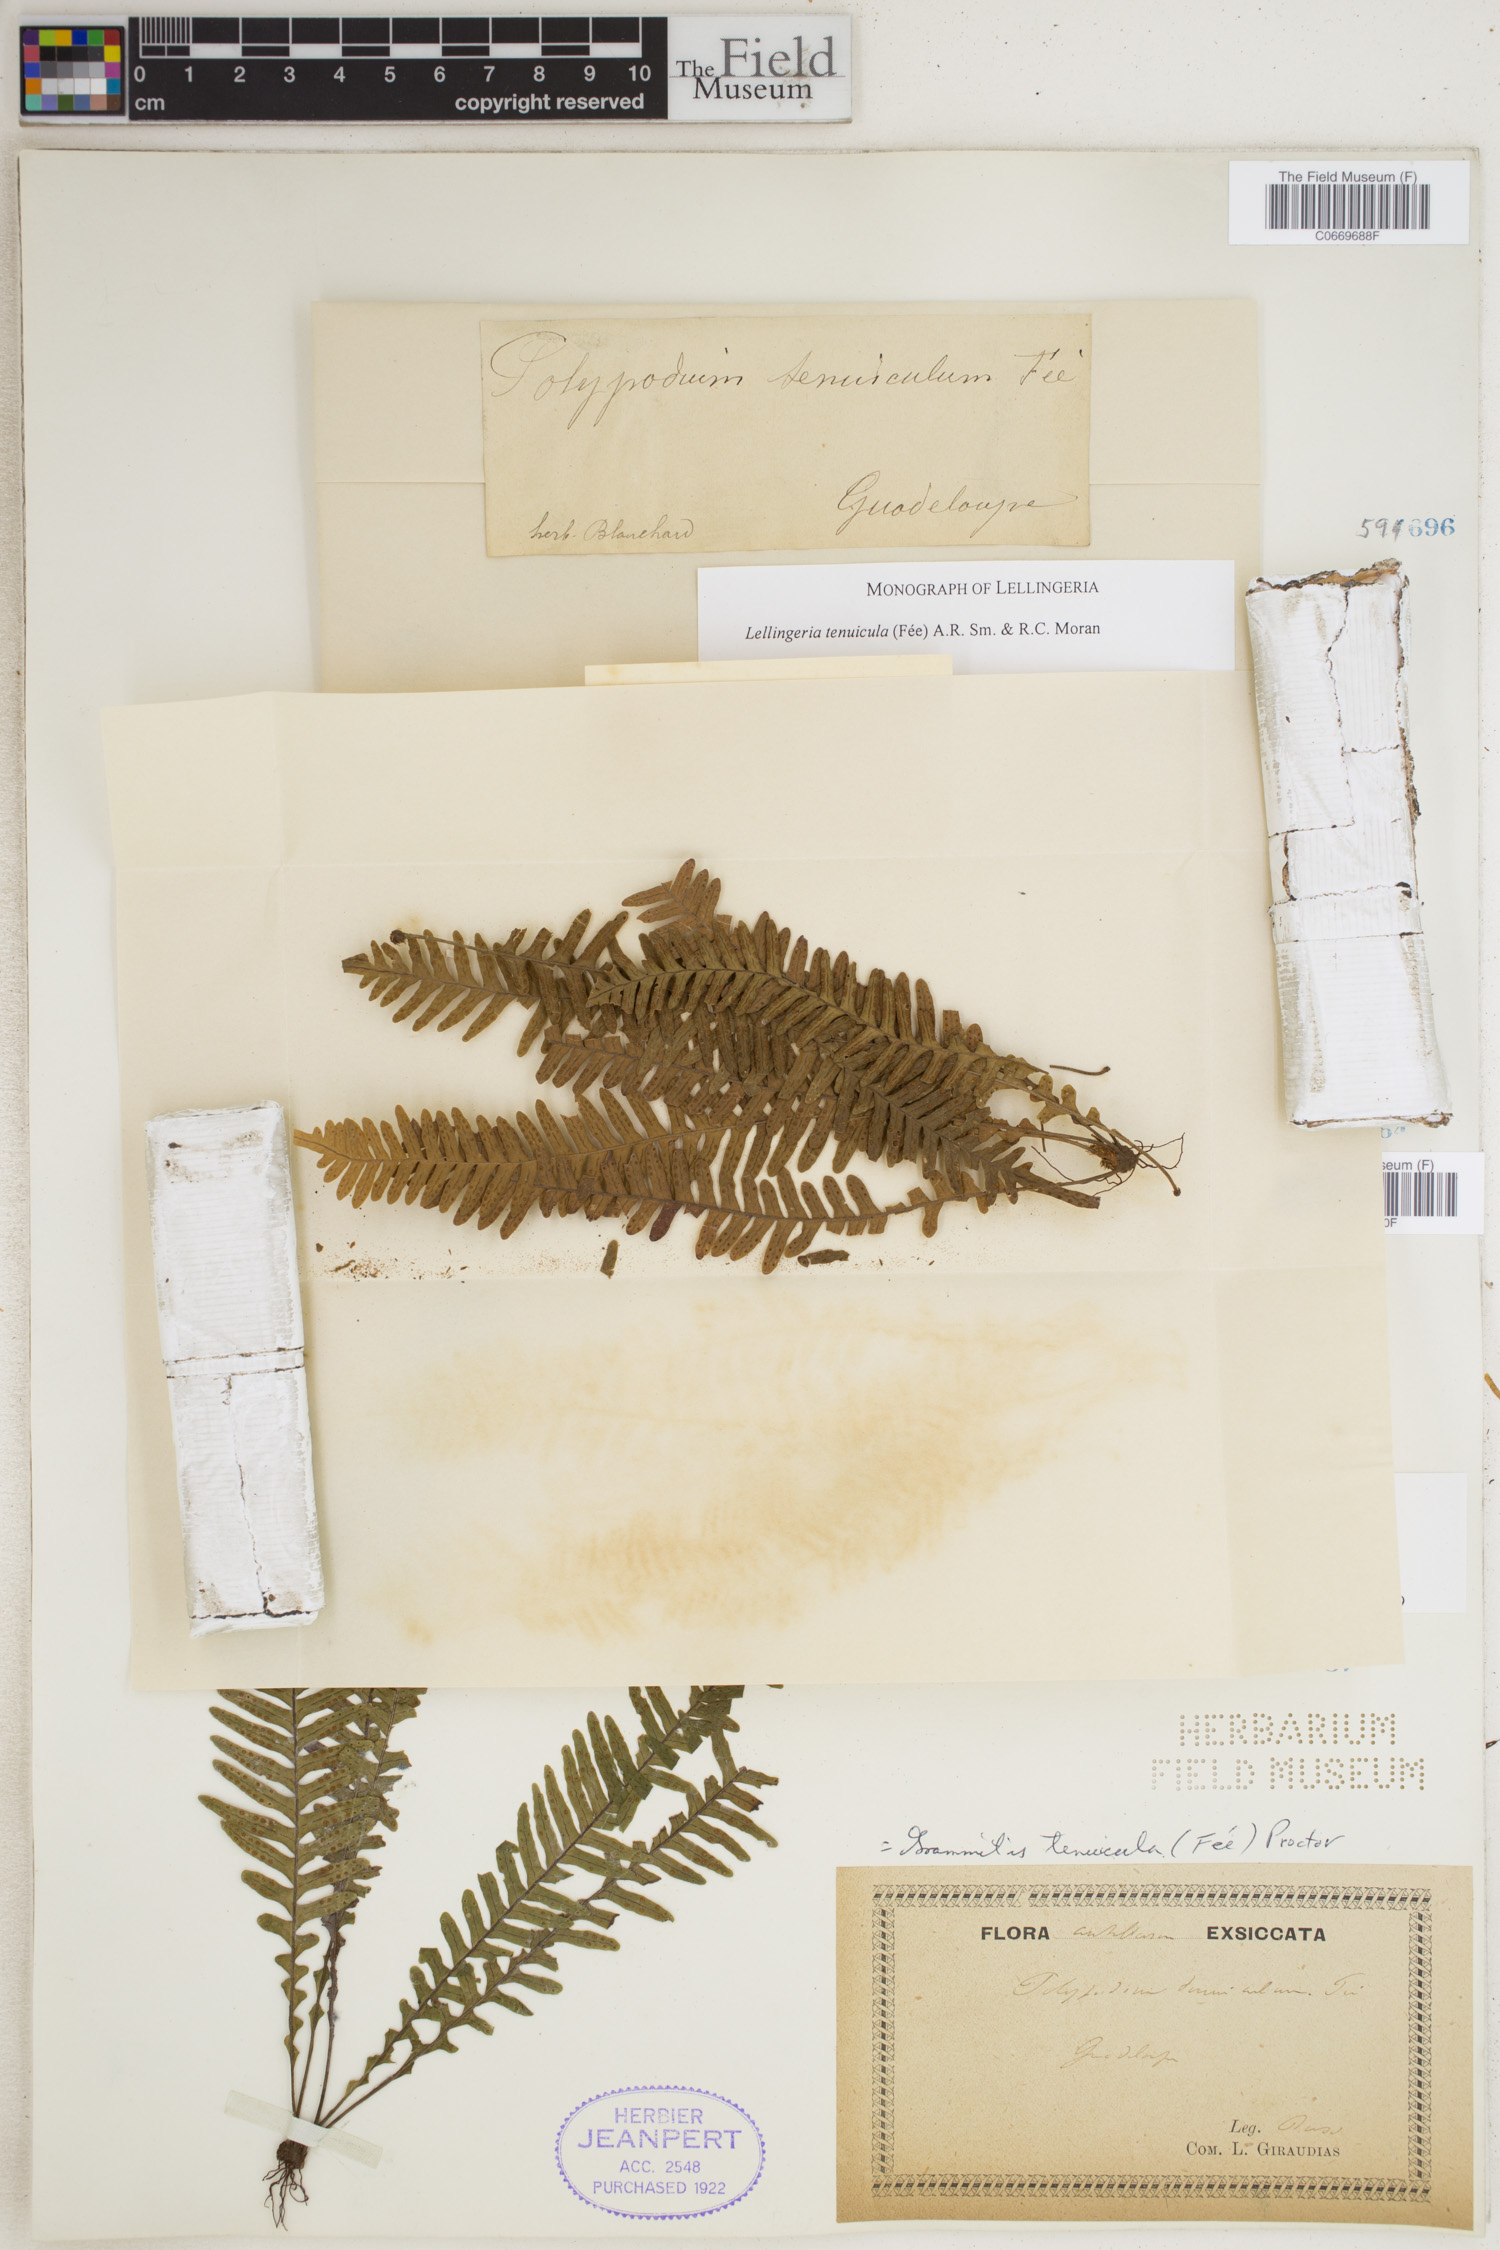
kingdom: Plantae
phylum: Tracheophyta
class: Polypodiopsida
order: Polypodiales
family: Polypodiaceae
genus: Lellingeria
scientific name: Lellingeria tenuicula
